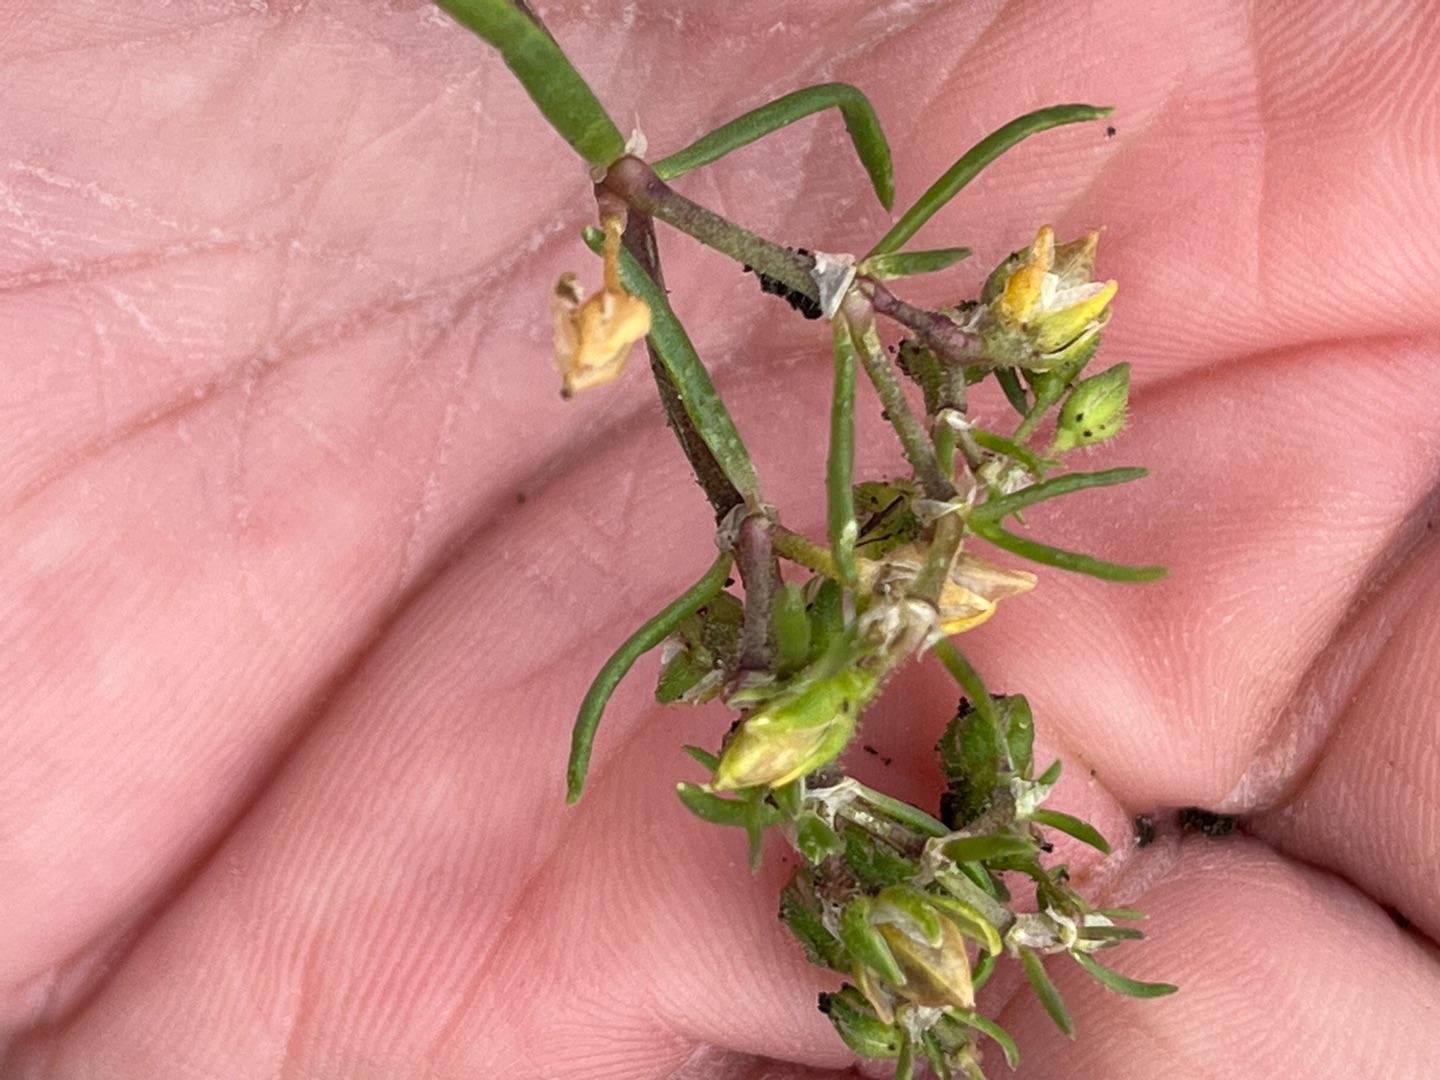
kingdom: Plantae
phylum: Tracheophyta
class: Magnoliopsida
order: Caryophyllales
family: Caryophyllaceae
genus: Spergularia
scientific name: Spergularia media
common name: Vingefrøet hindeknæ
